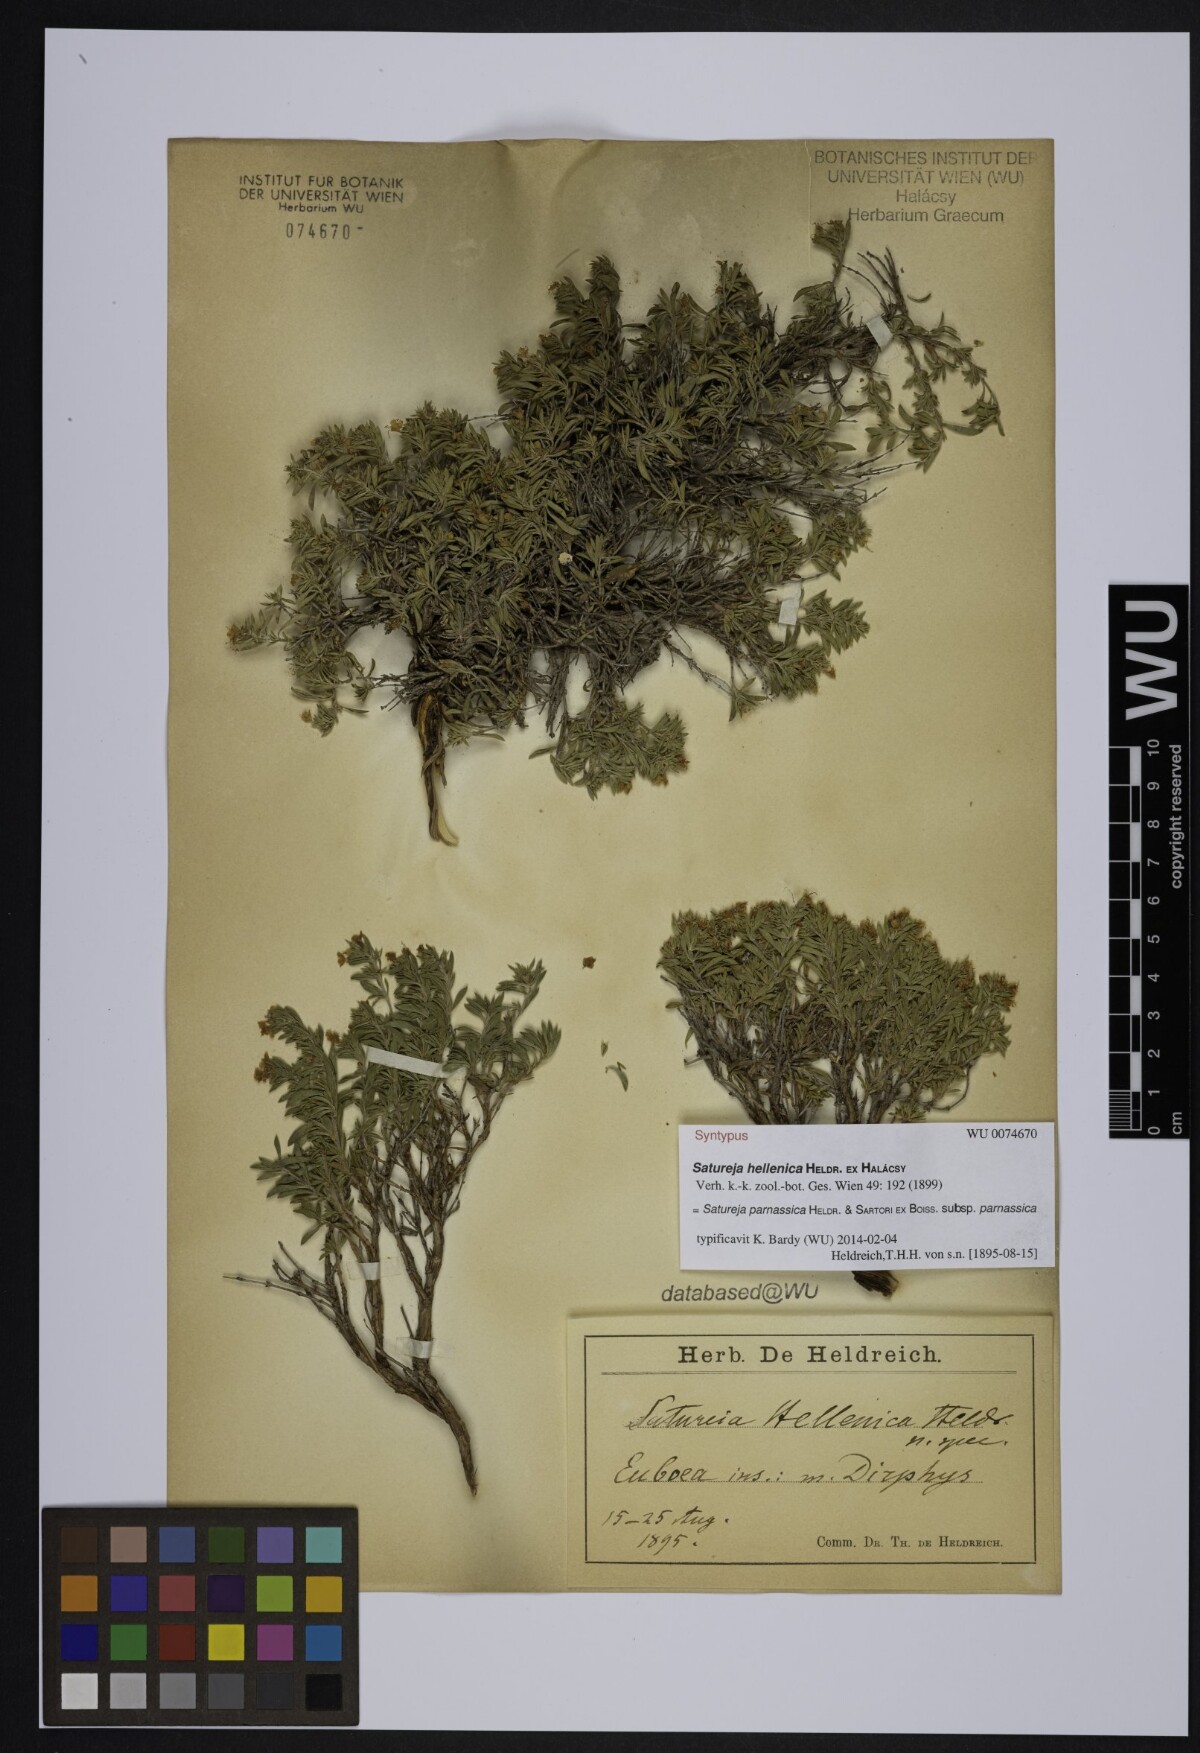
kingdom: Plantae
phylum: Tracheophyta
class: Magnoliopsida
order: Lamiales
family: Lamiaceae
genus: Satureja
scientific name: Satureja hellenica
